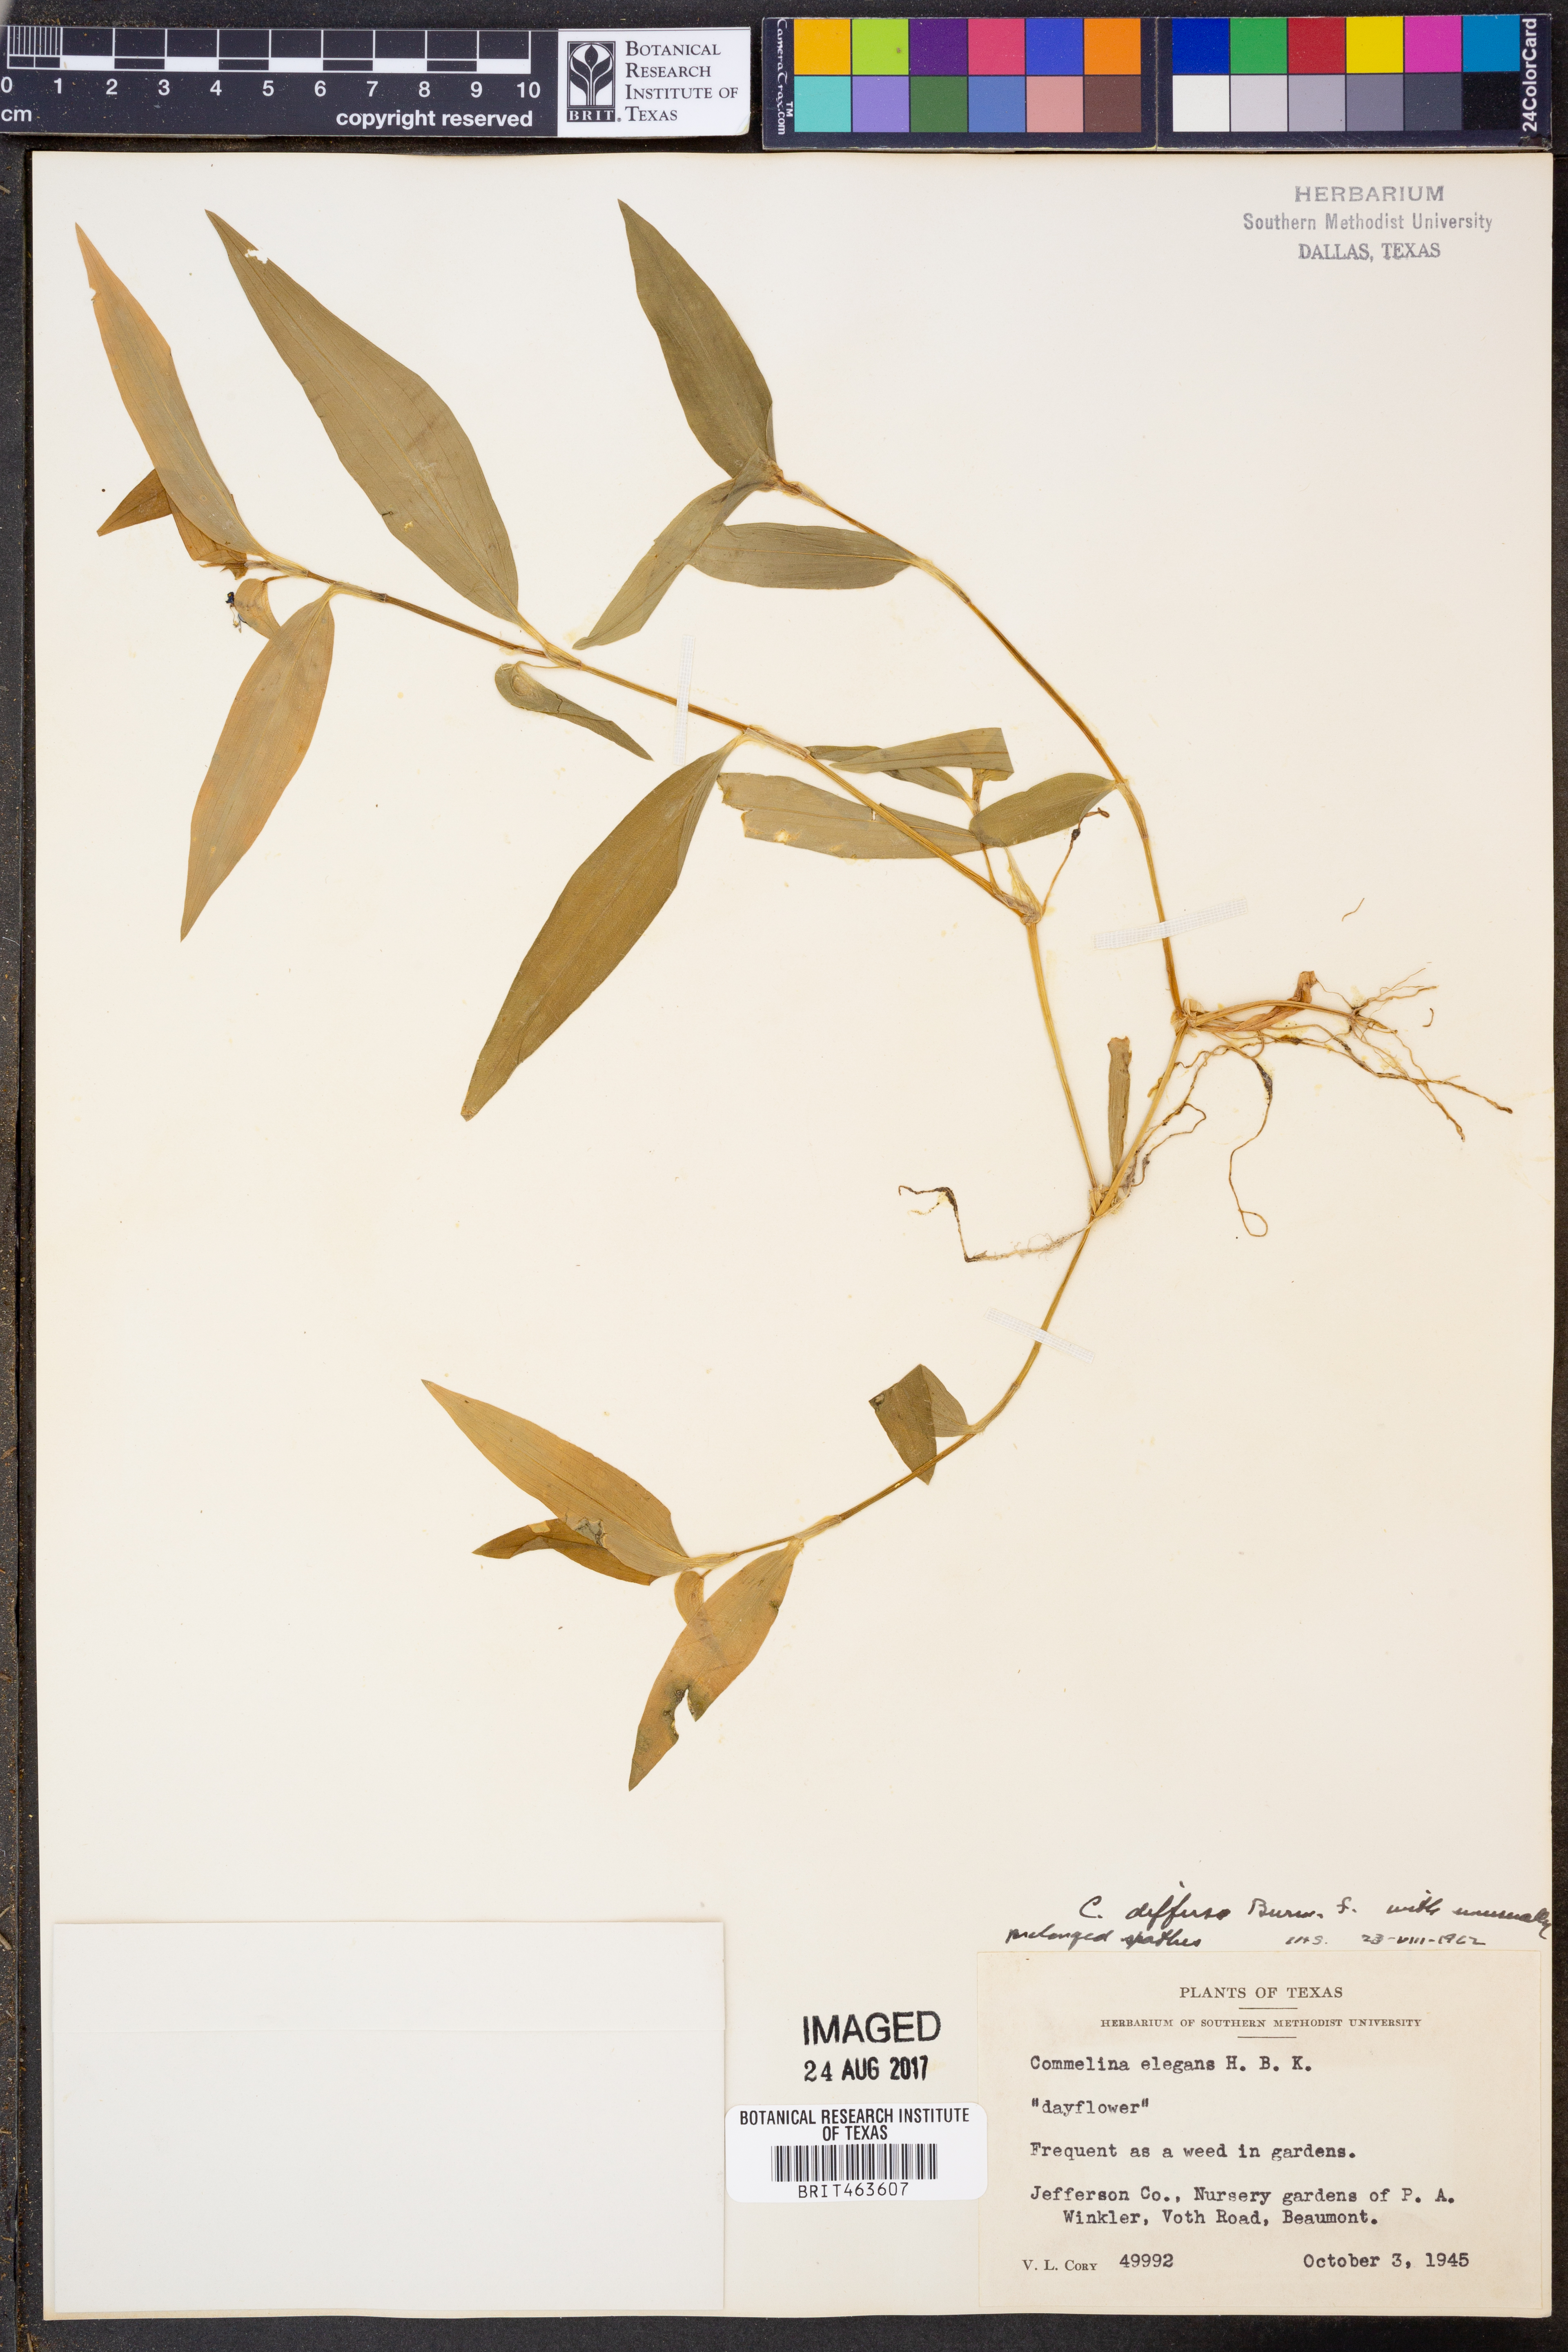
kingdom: Plantae
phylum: Tracheophyta
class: Liliopsida
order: Commelinales
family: Commelinaceae
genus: Commelina
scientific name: Commelina diffusa
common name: Climbing dayflower
